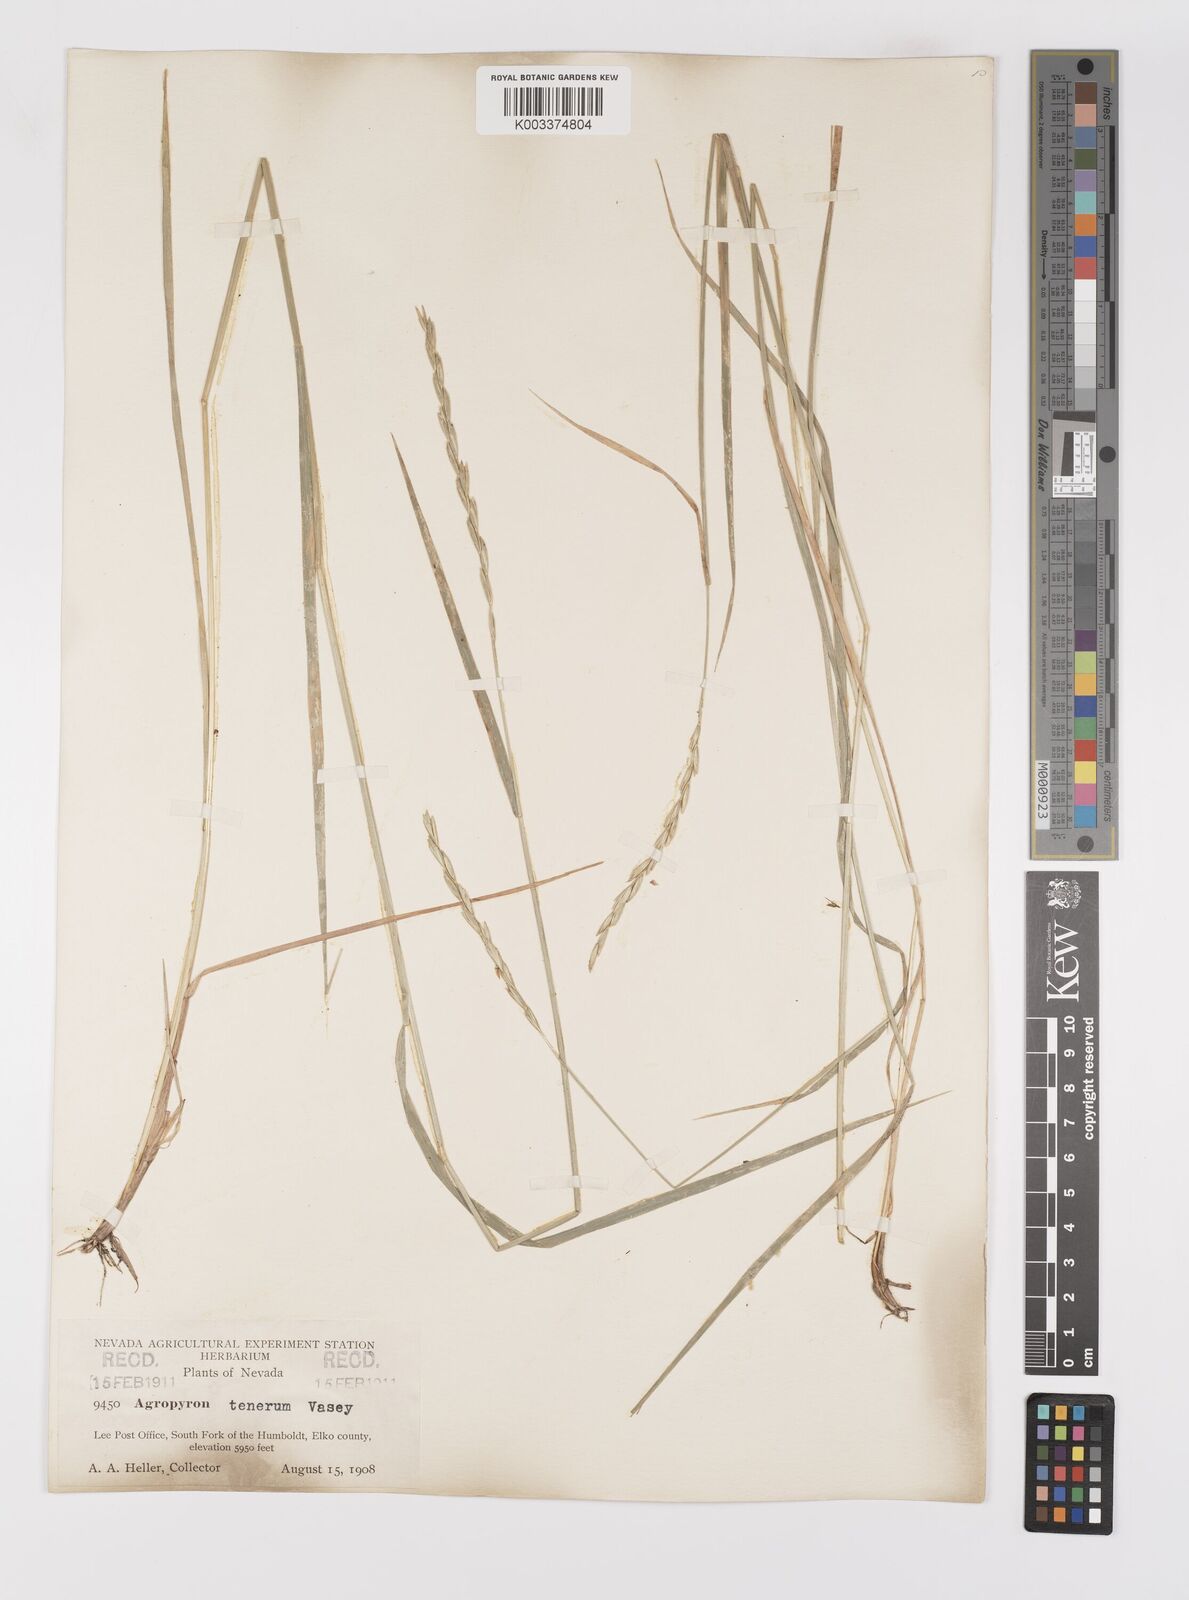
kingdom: Plantae
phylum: Tracheophyta
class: Liliopsida
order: Poales
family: Poaceae
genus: Elymus
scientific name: Elymus violaceus
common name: Arctic wheatgrass
